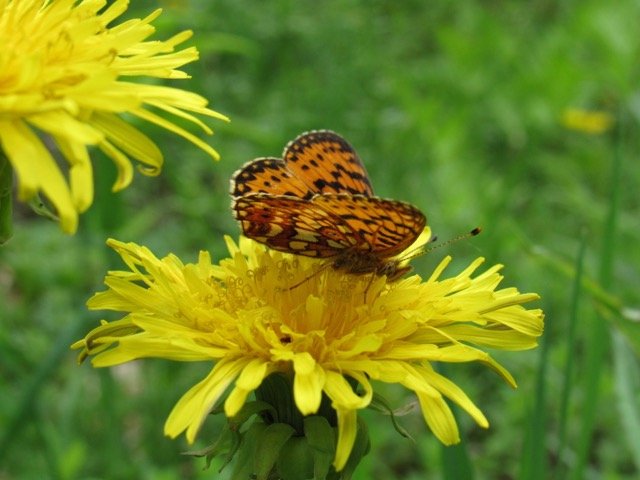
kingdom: Animalia
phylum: Arthropoda
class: Insecta
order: Lepidoptera
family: Nymphalidae
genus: Boloria
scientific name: Boloria selene
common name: Silver-bordered Fritillary
